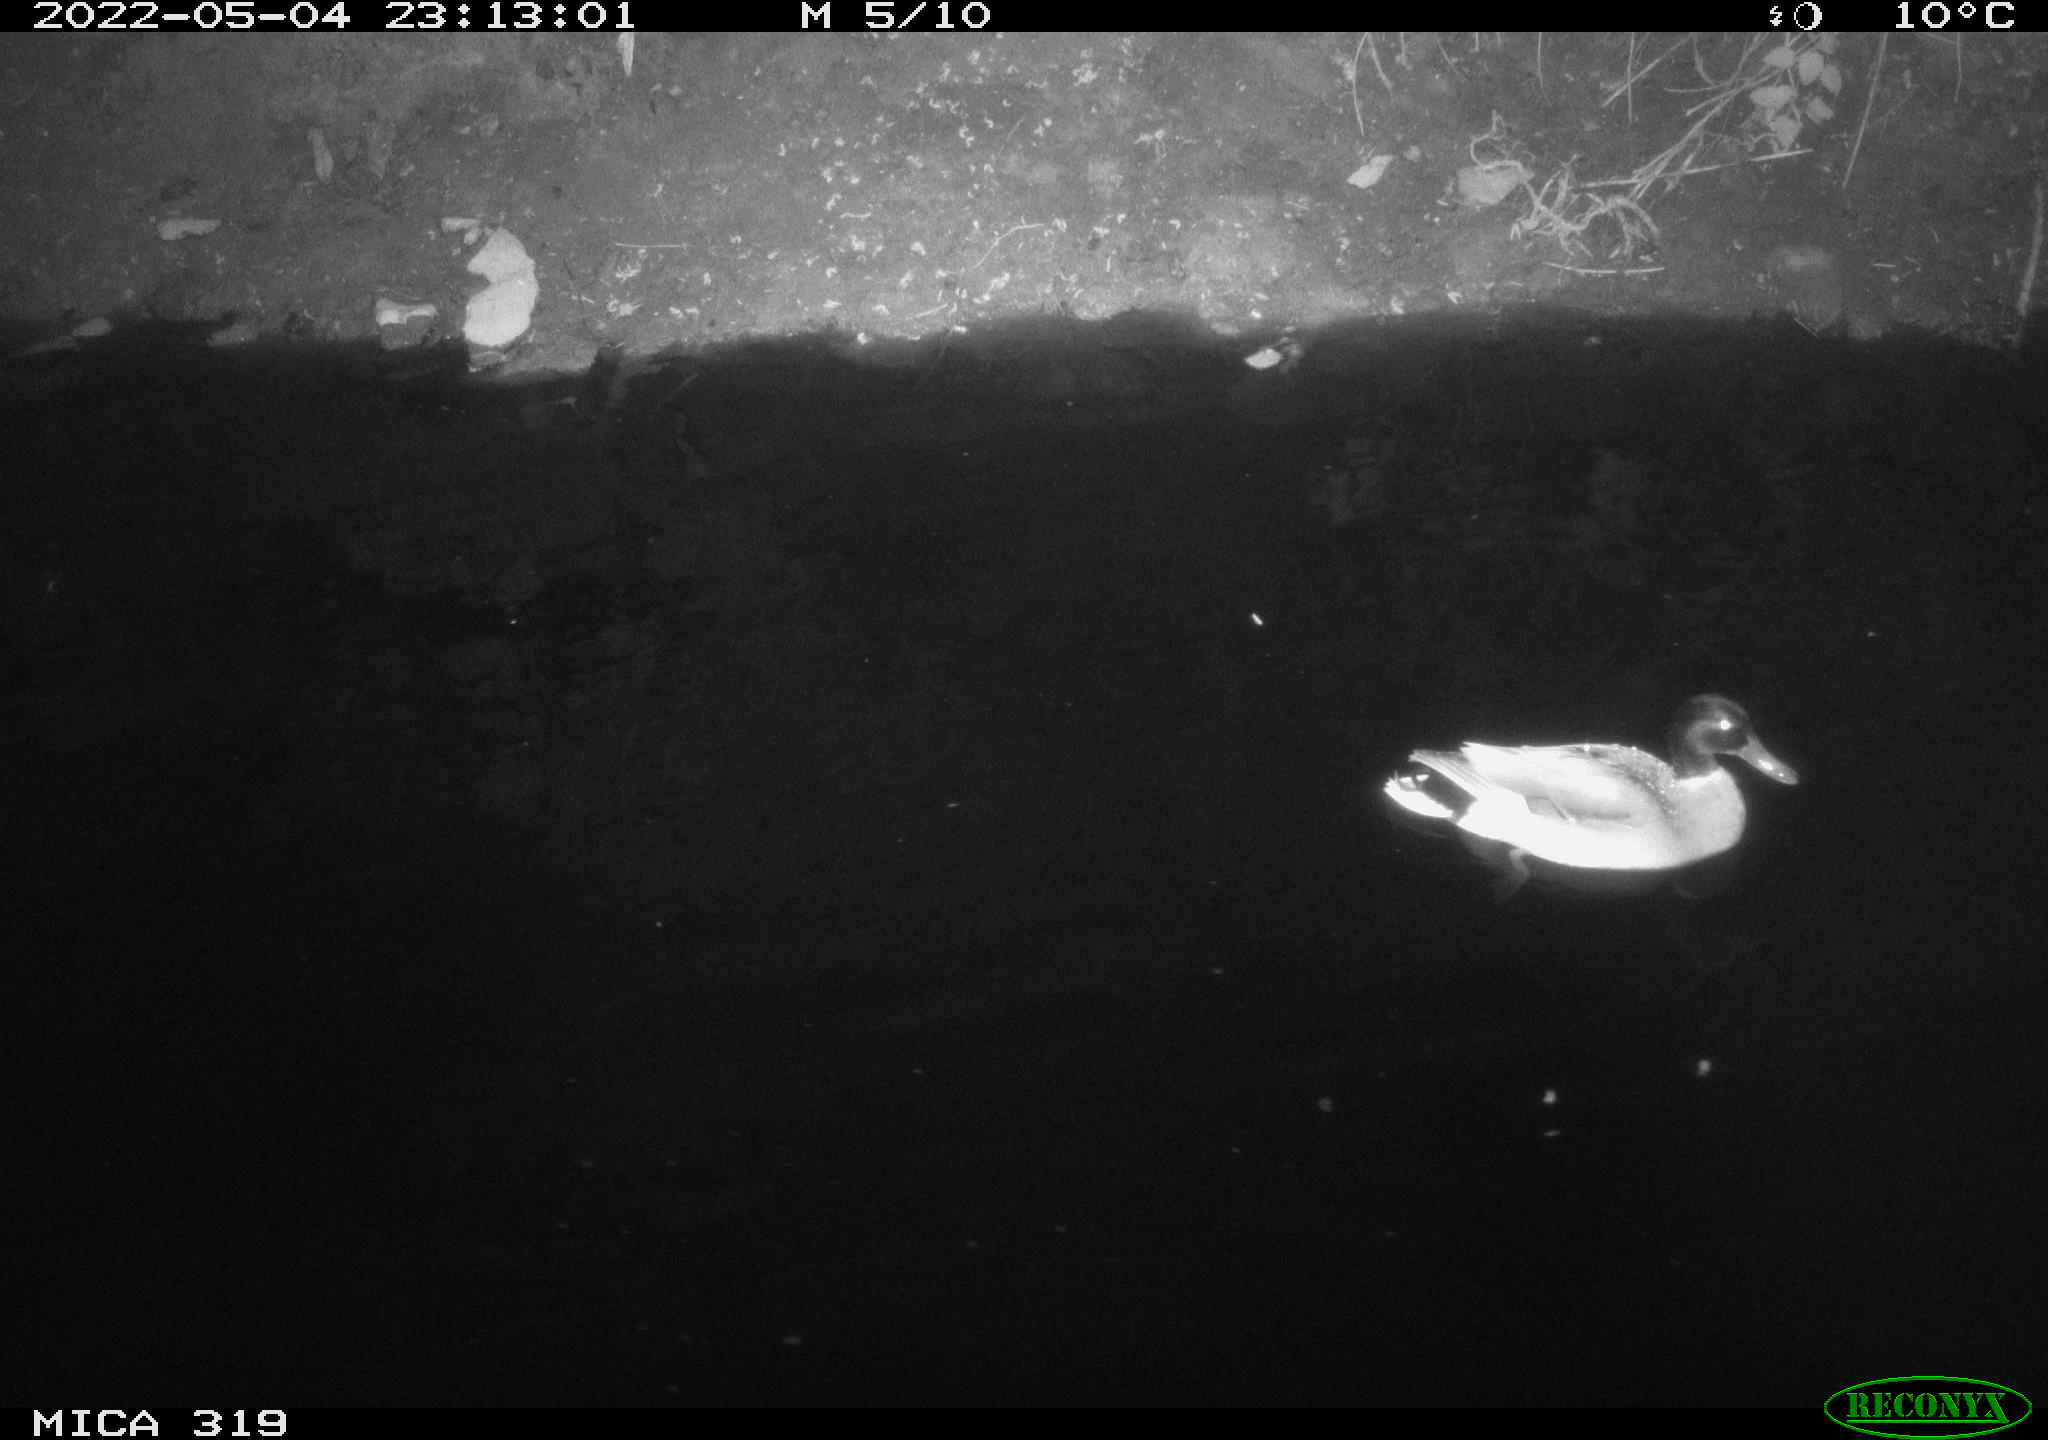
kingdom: Animalia
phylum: Chordata
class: Aves
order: Anseriformes
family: Anatidae
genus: Anas
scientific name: Anas platyrhynchos
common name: Mallard
